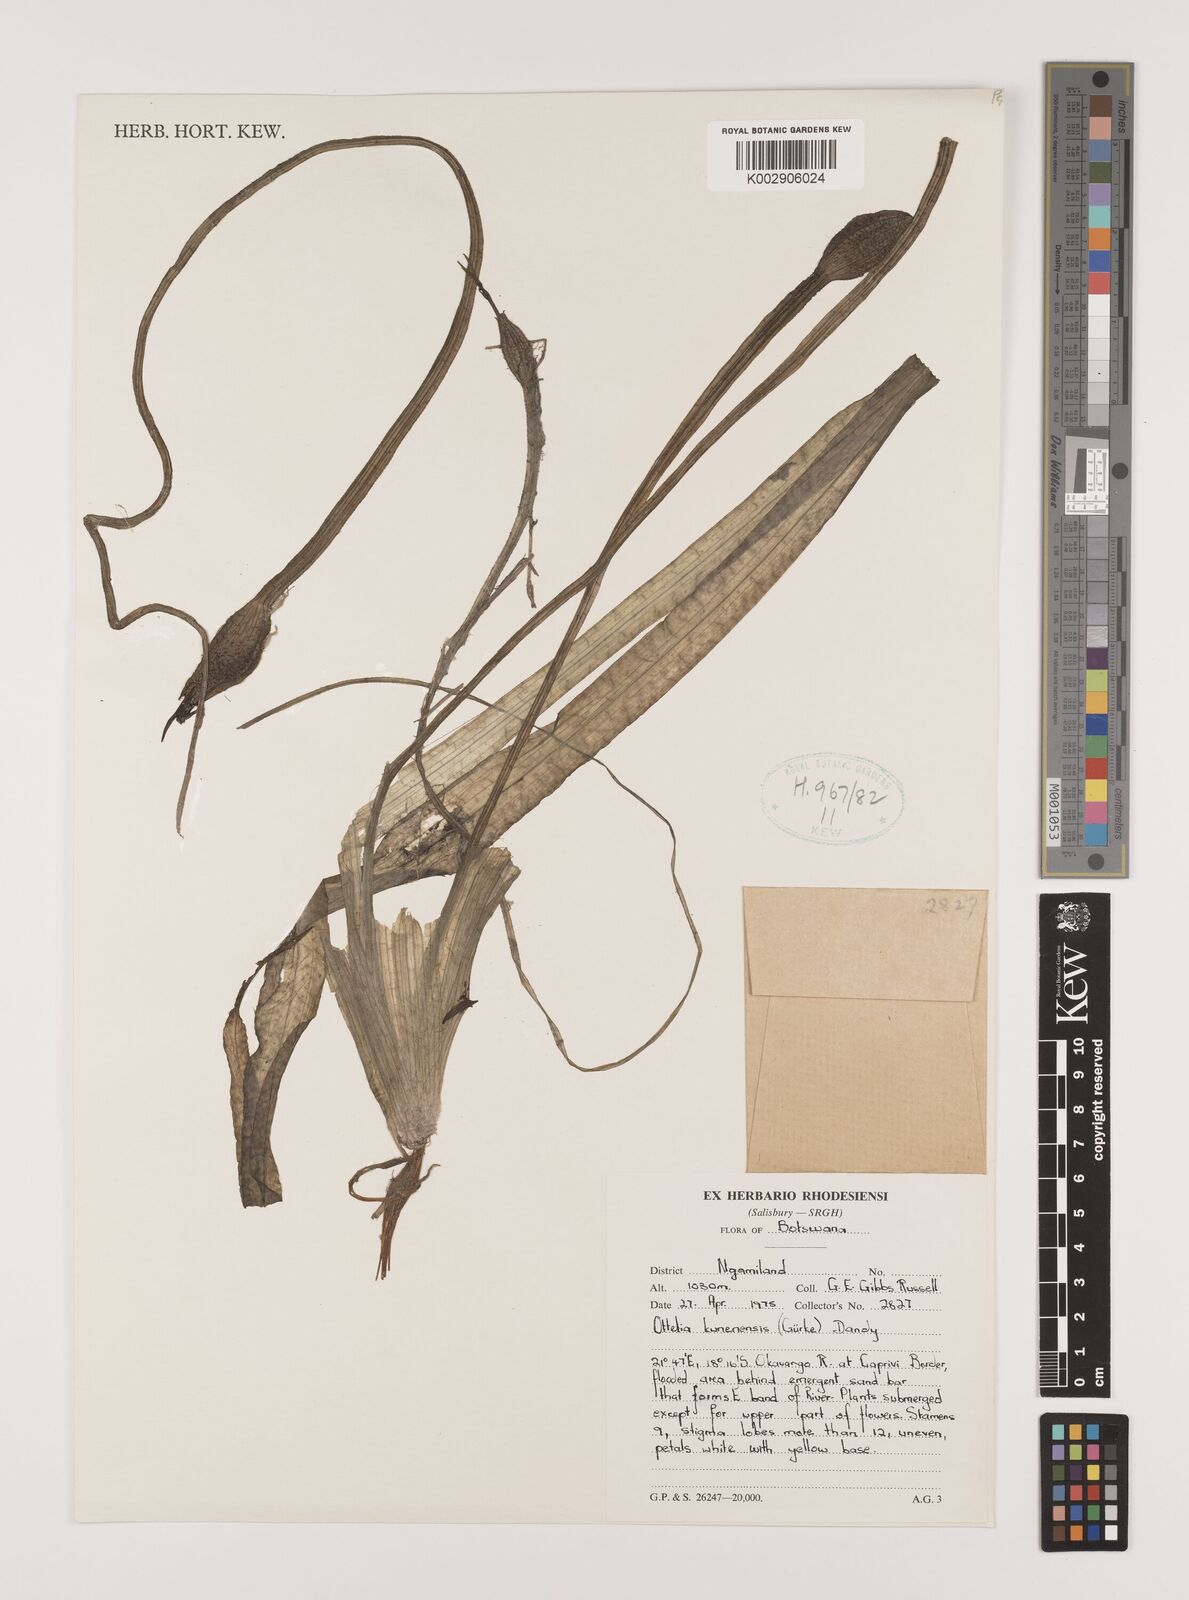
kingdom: Plantae
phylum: Tracheophyta
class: Liliopsida
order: Alismatales
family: Hydrocharitaceae
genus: Ottelia
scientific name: Ottelia kunenensis
